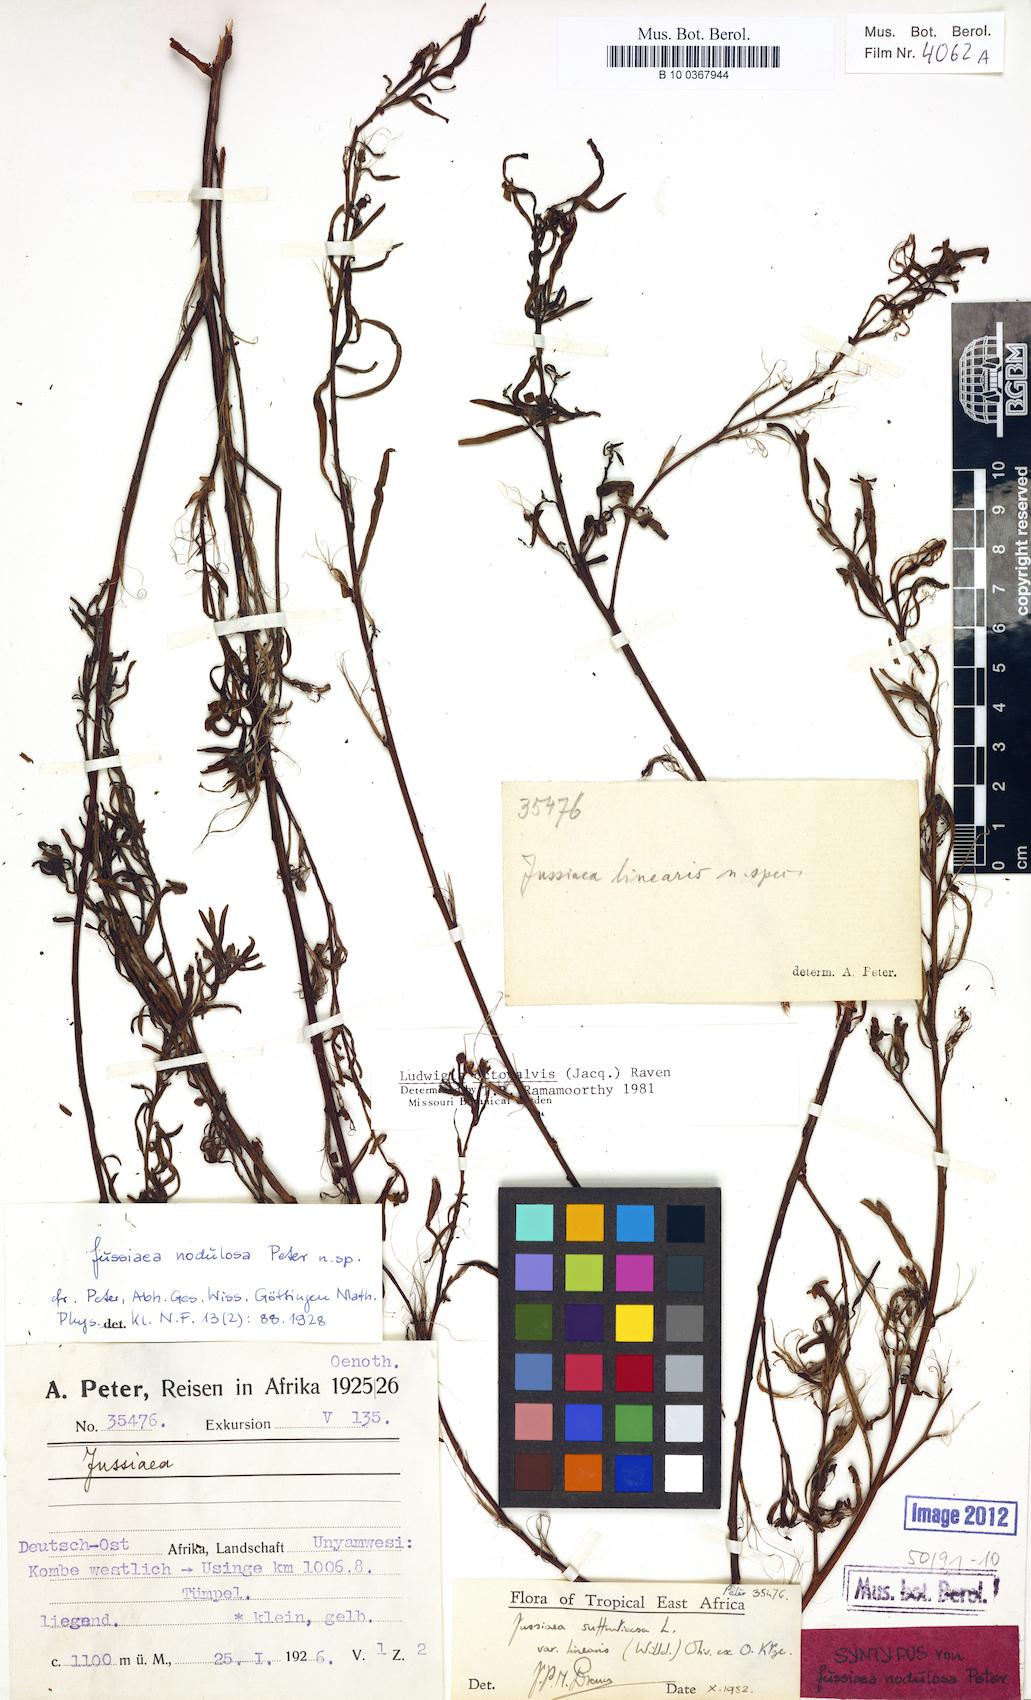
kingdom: Plantae
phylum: Tracheophyta
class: Magnoliopsida
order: Myrtales
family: Onagraceae
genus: Ludwigia
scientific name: Ludwigia octovalvis
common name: Water-primrose
